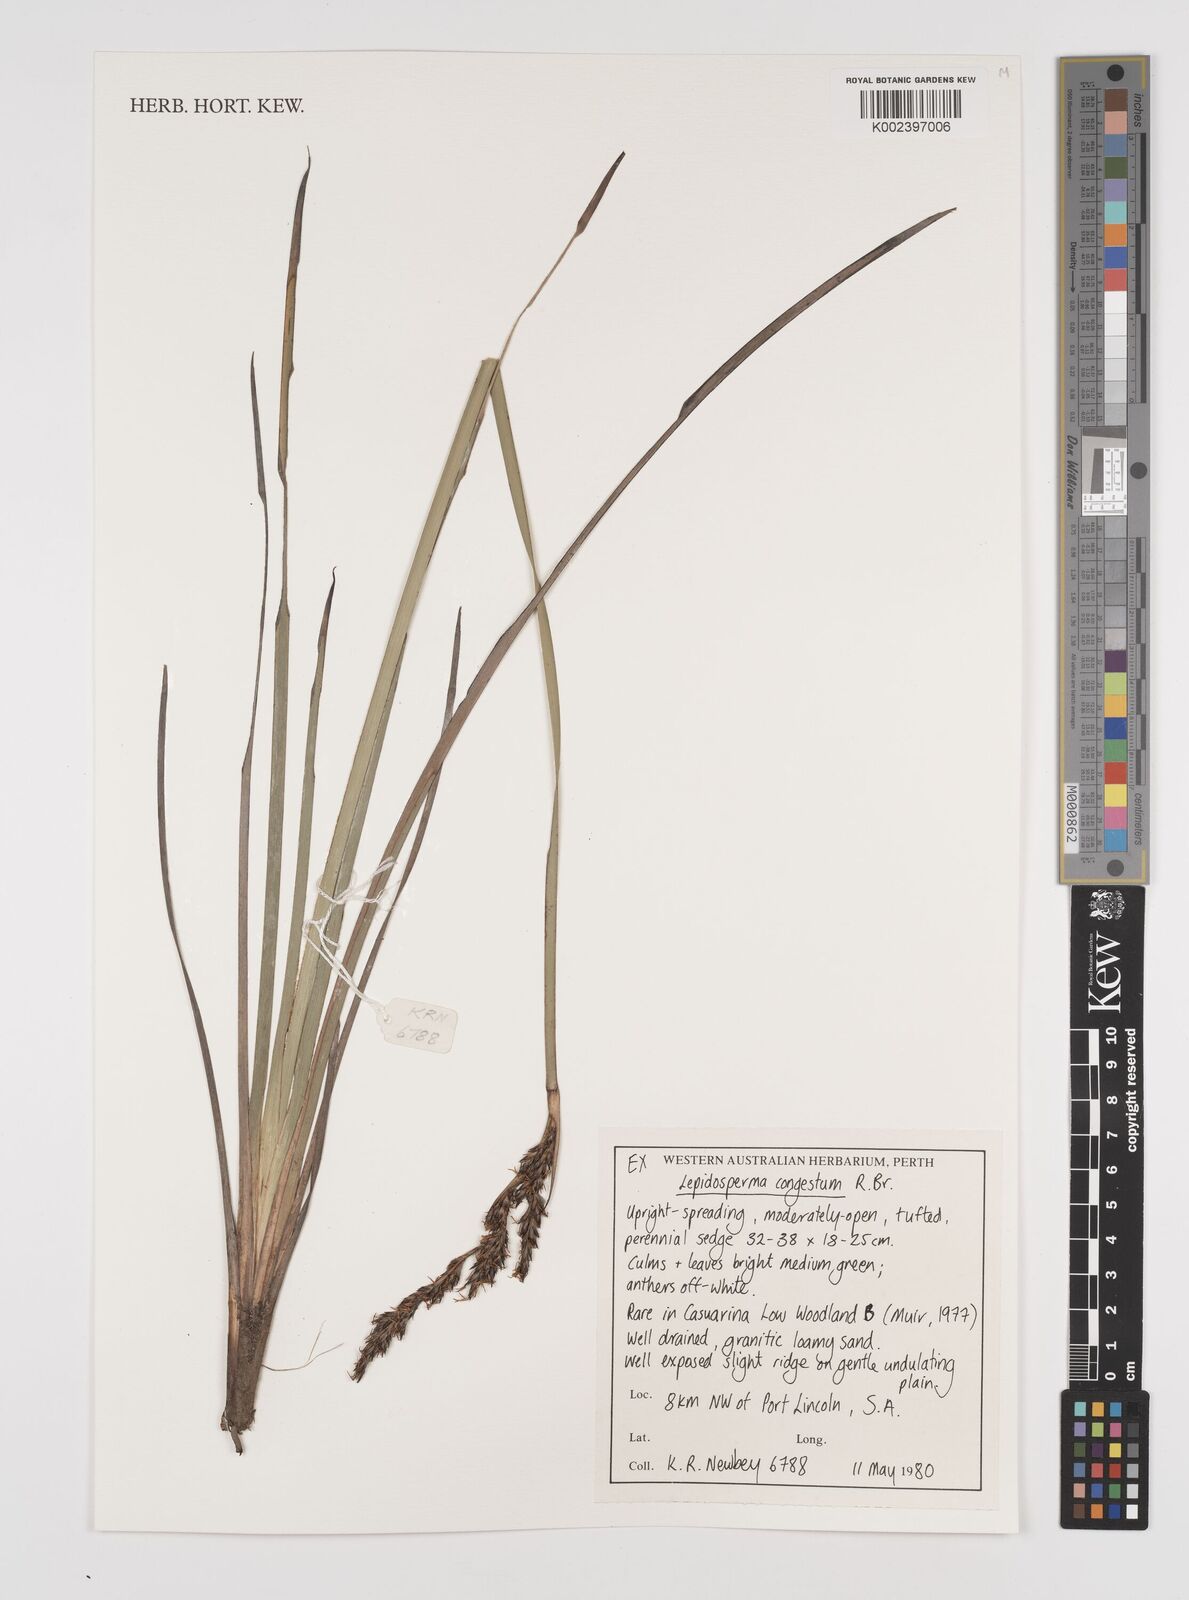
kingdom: Plantae
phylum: Tracheophyta
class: Liliopsida
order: Poales
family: Cyperaceae
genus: Lepidosperma
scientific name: Lepidosperma congestum
